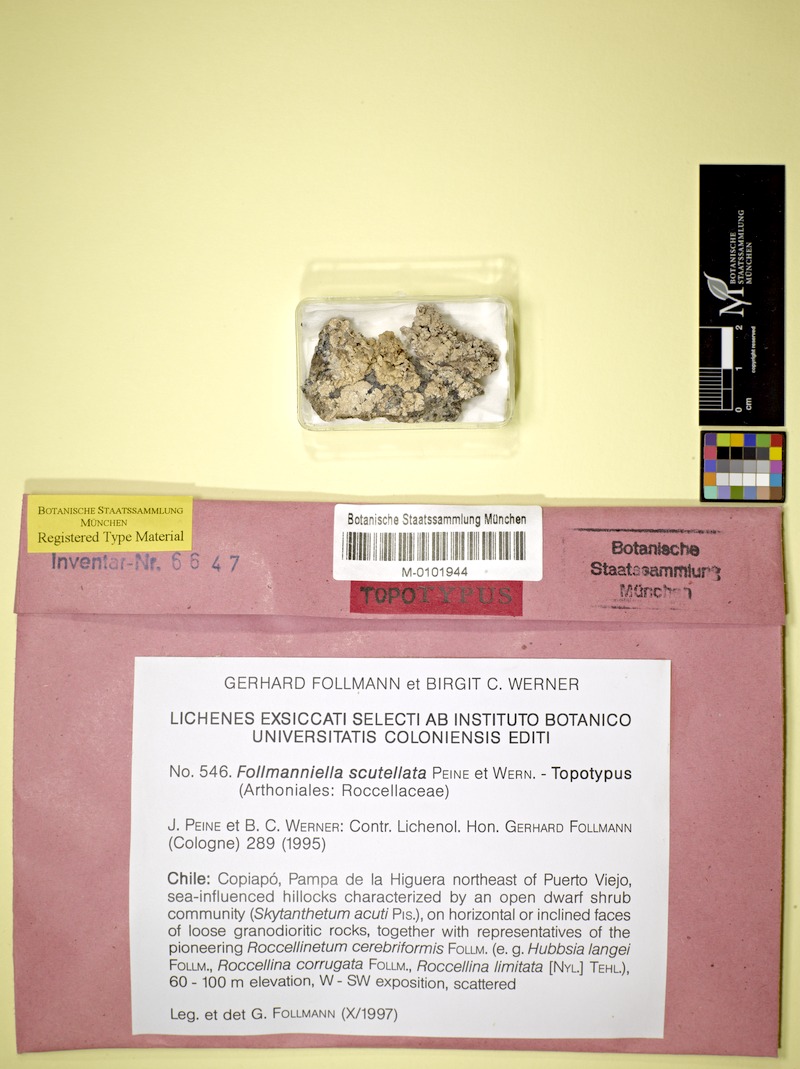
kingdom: Fungi
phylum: Ascomycota
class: Arthoniomycetes
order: Arthoniales
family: Roccellaceae
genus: Follmanniella
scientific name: Follmanniella scutellata
